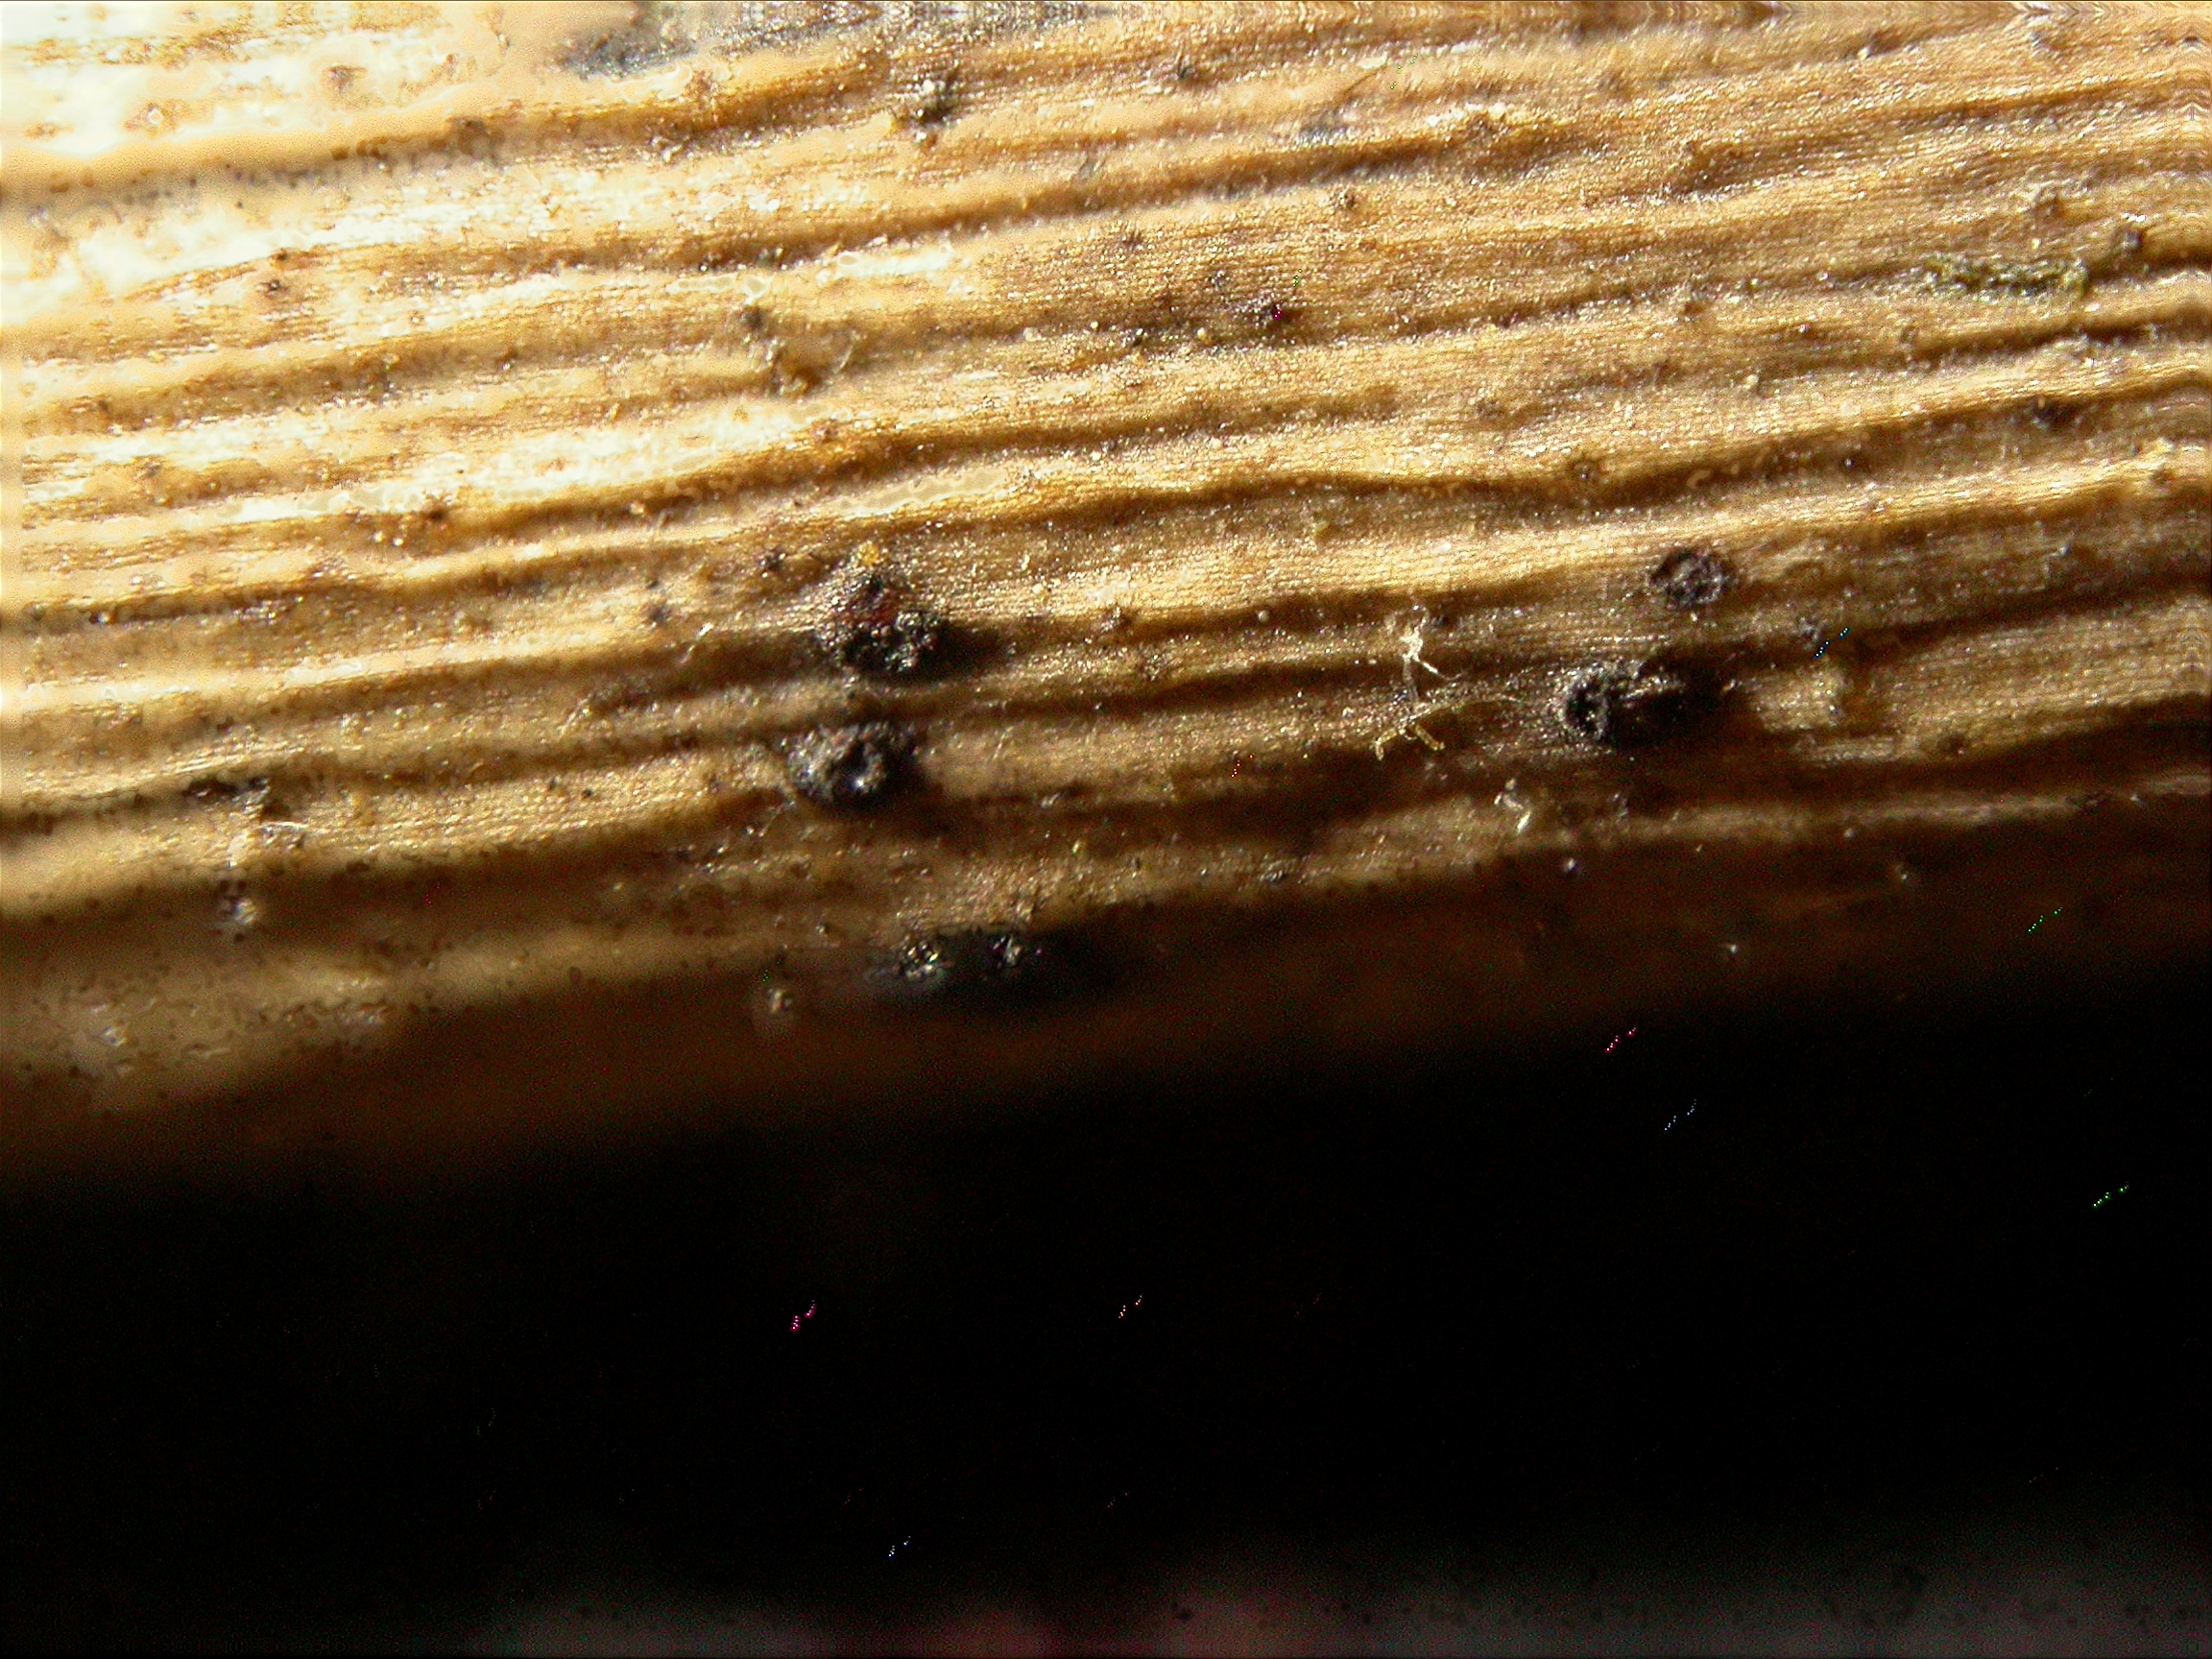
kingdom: Fungi
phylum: Ascomycota
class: Dothideomycetes
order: Dothideales
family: Saccotheciaceae
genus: Metasphaeria
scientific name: Metasphaeria vulgaris
